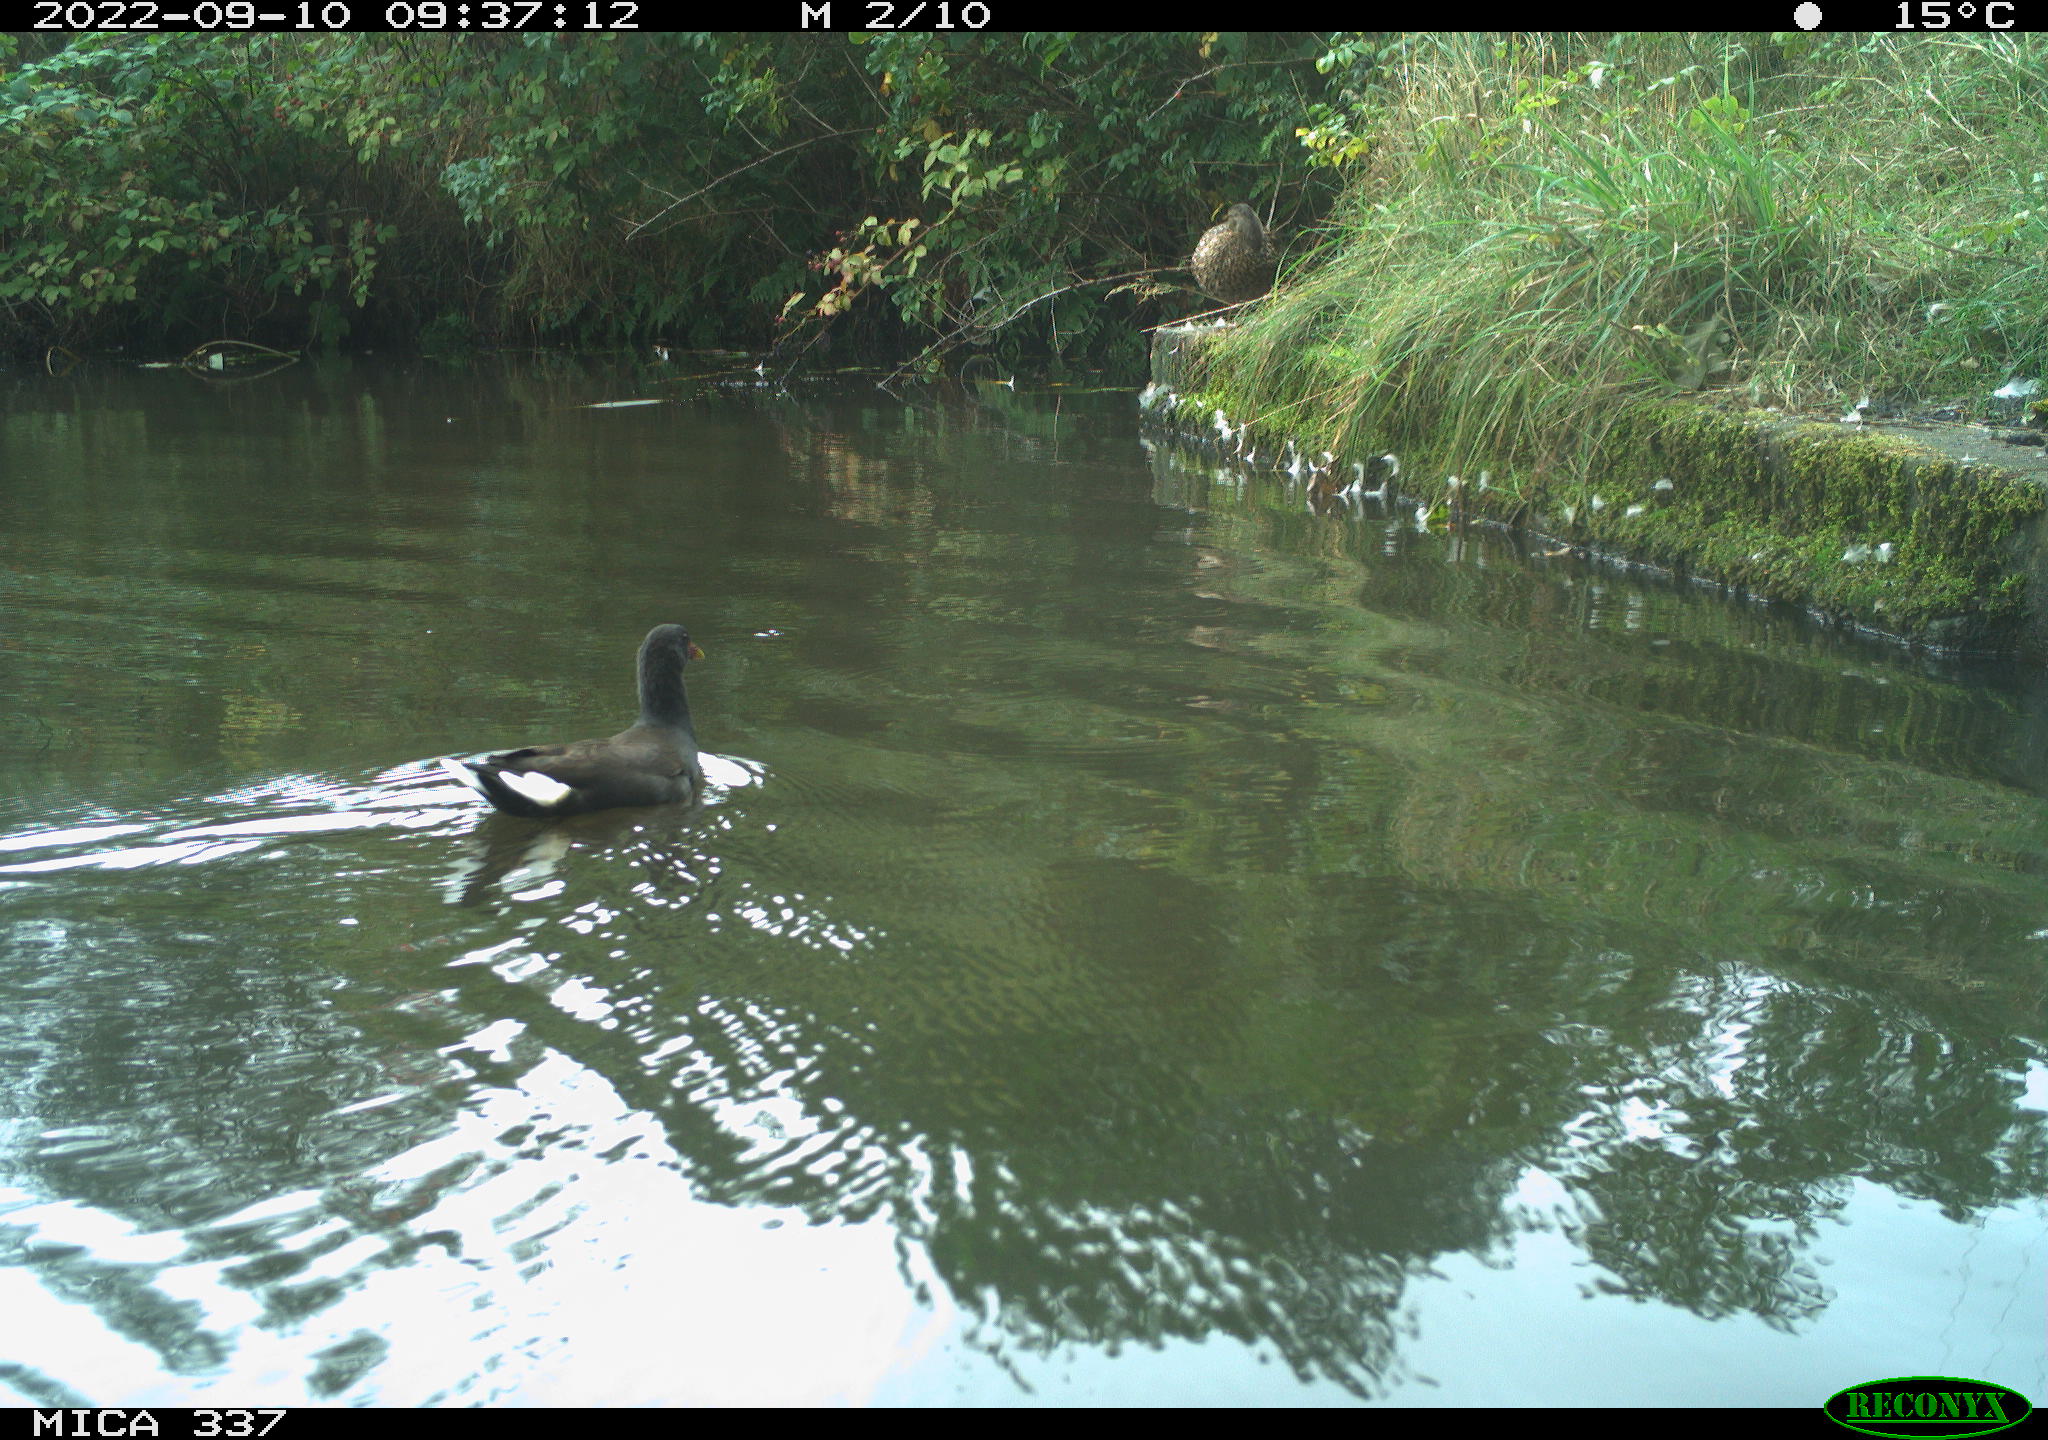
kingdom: Animalia
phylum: Chordata
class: Aves
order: Gruiformes
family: Rallidae
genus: Gallinula
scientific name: Gallinula chloropus
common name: Common moorhen
